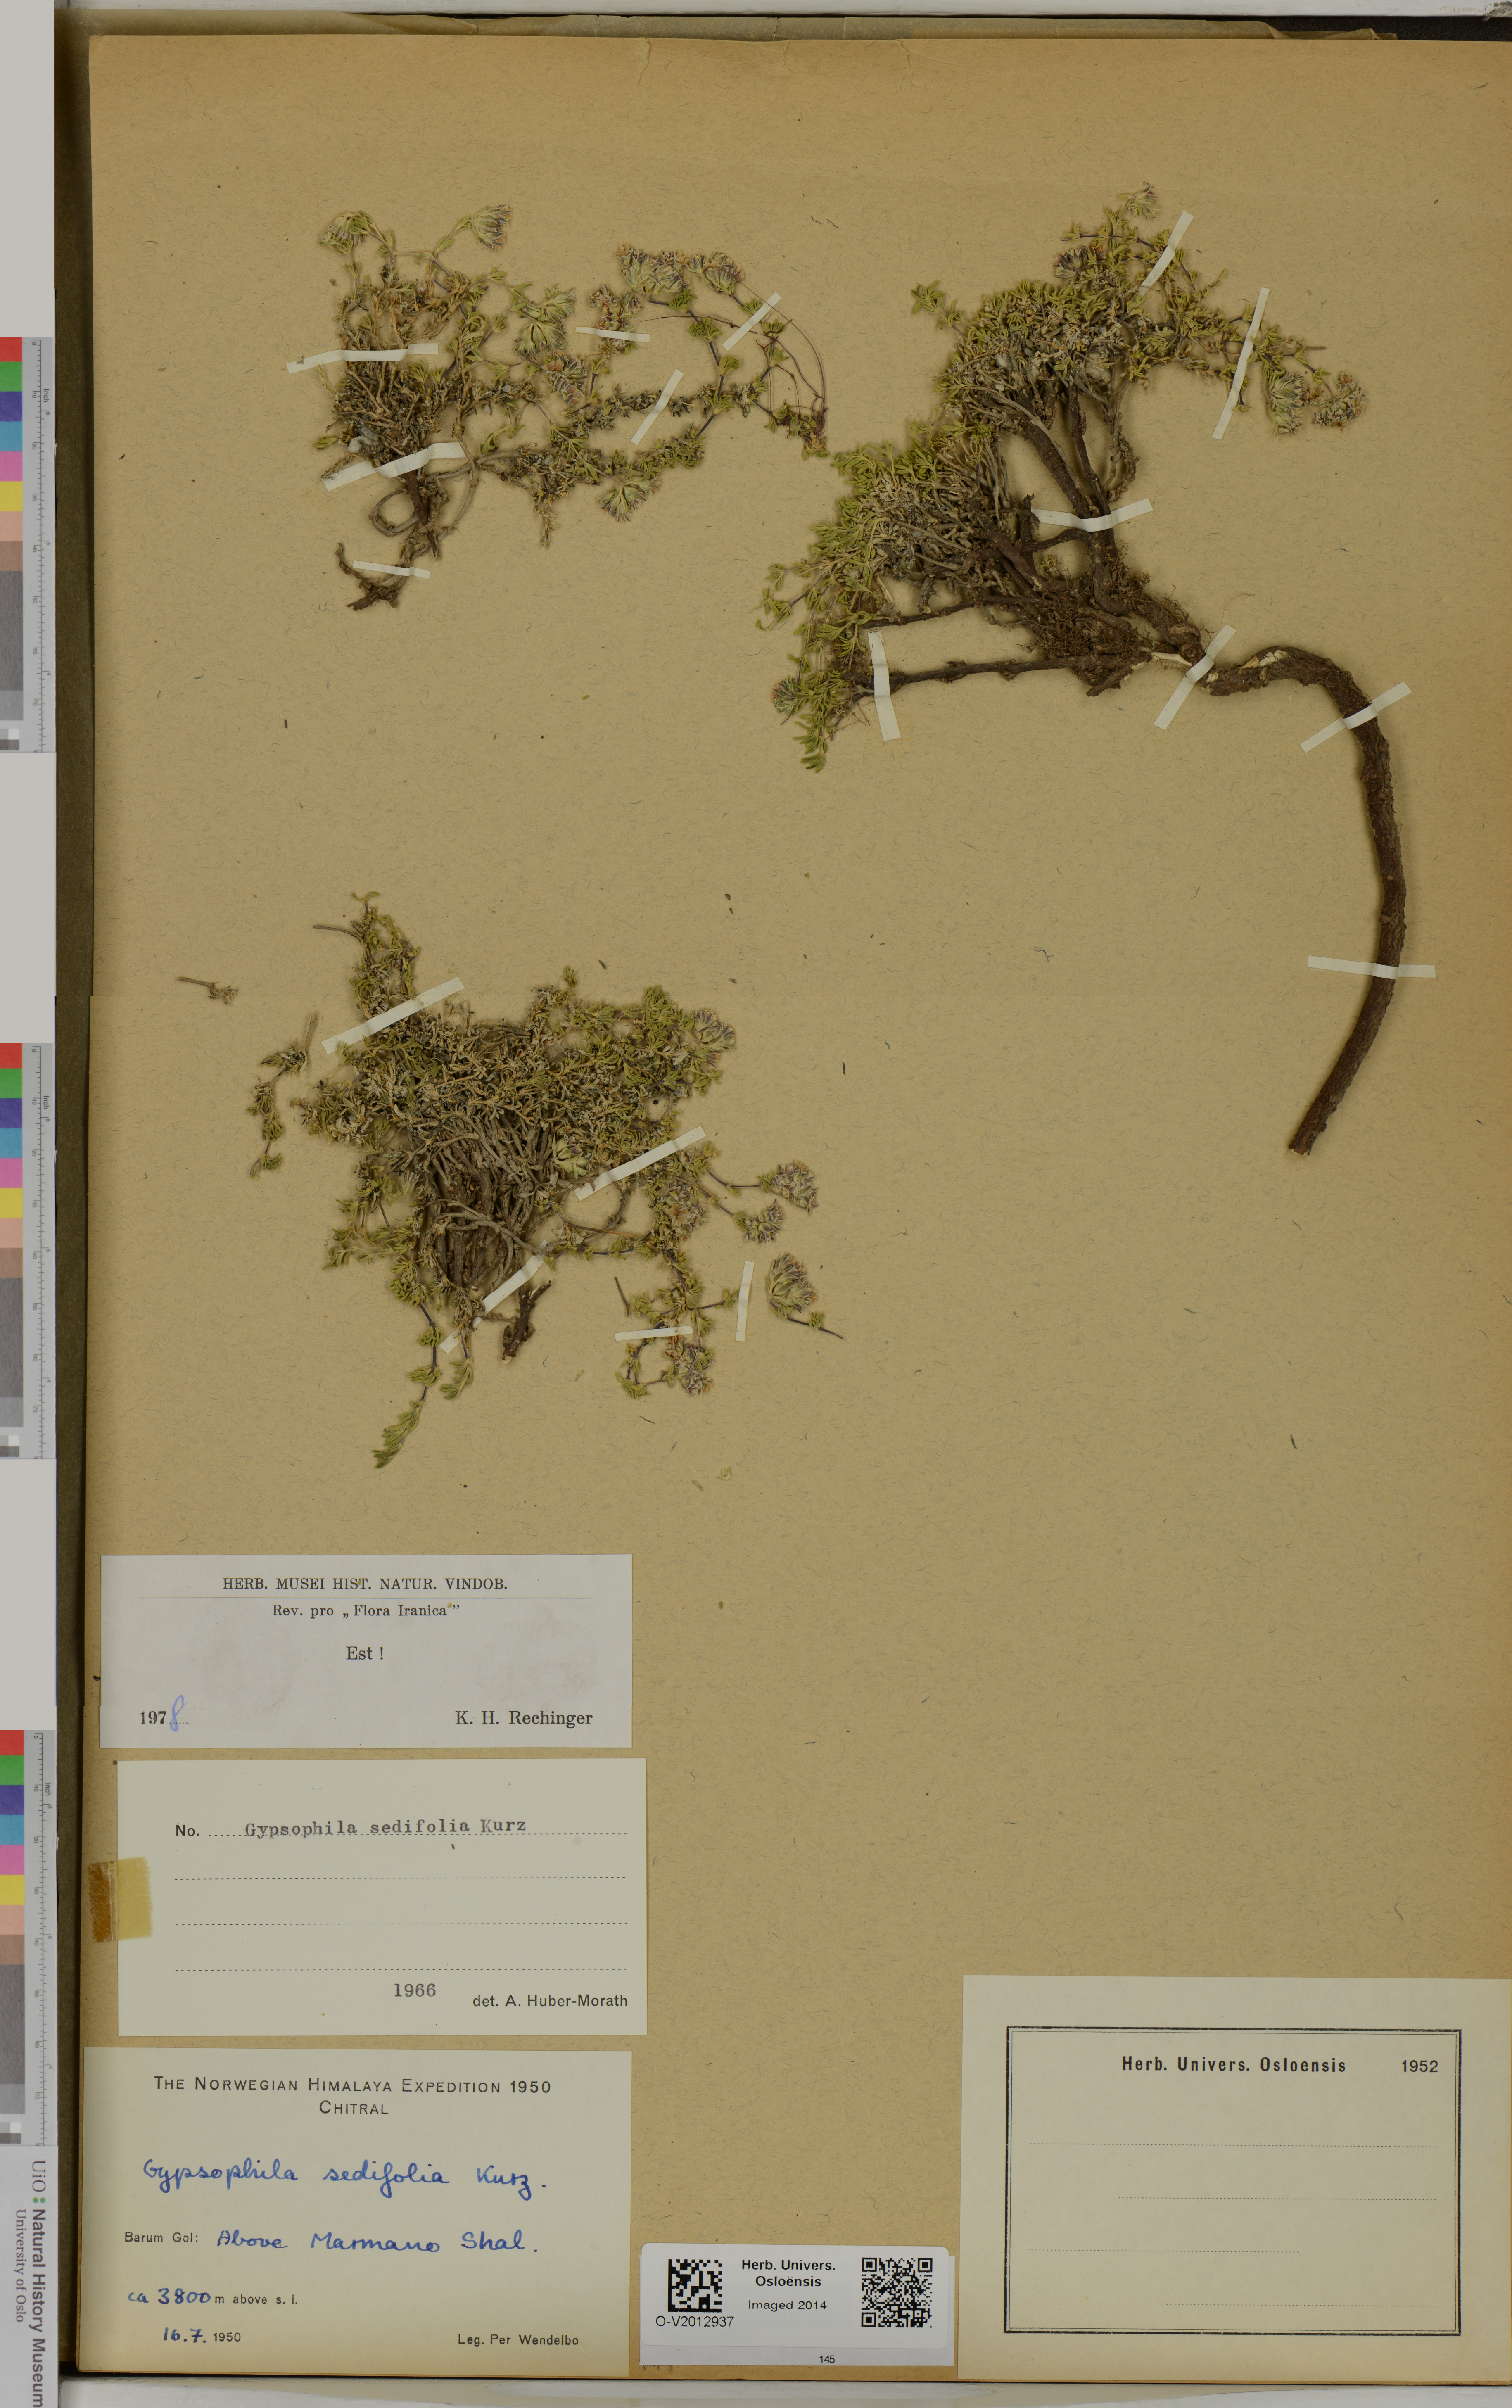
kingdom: Plantae
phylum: Tracheophyta
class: Magnoliopsida
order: Caryophyllales
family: Caryophyllaceae
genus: Acanthophyllum
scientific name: Acanthophyllum sedifolium
